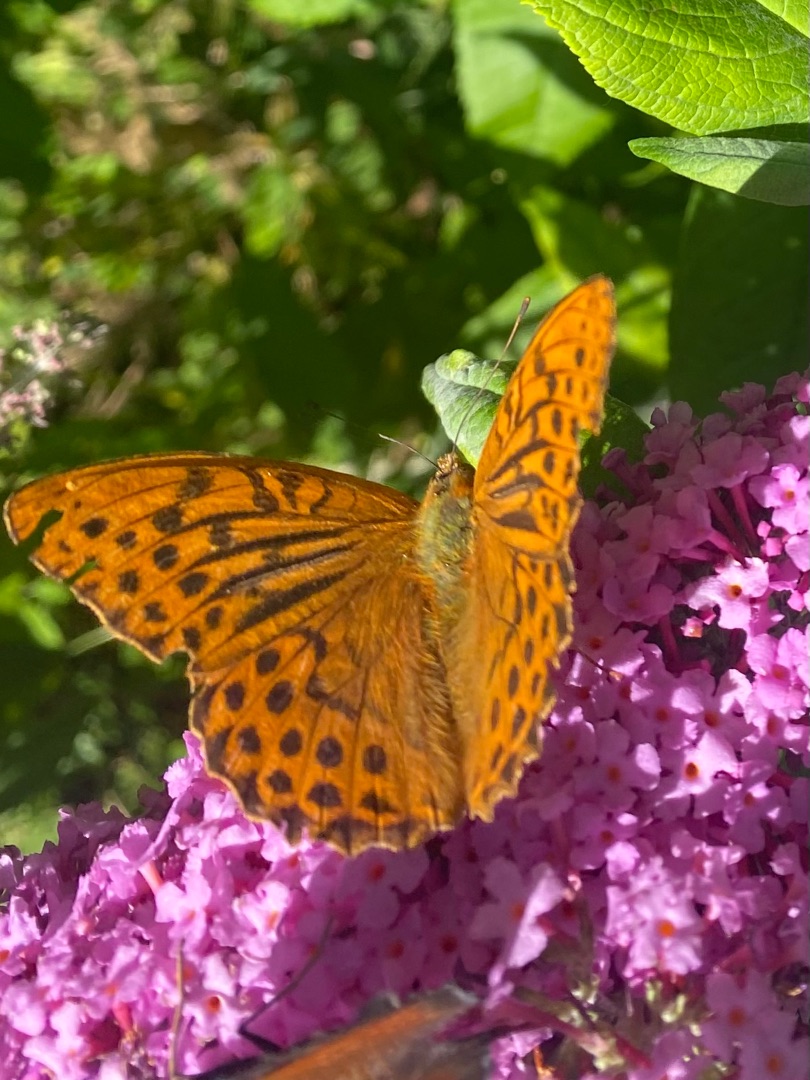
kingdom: Animalia
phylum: Arthropoda
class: Insecta
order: Lepidoptera
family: Nymphalidae
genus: Argynnis
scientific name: Argynnis paphia
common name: Kejserkåbe
